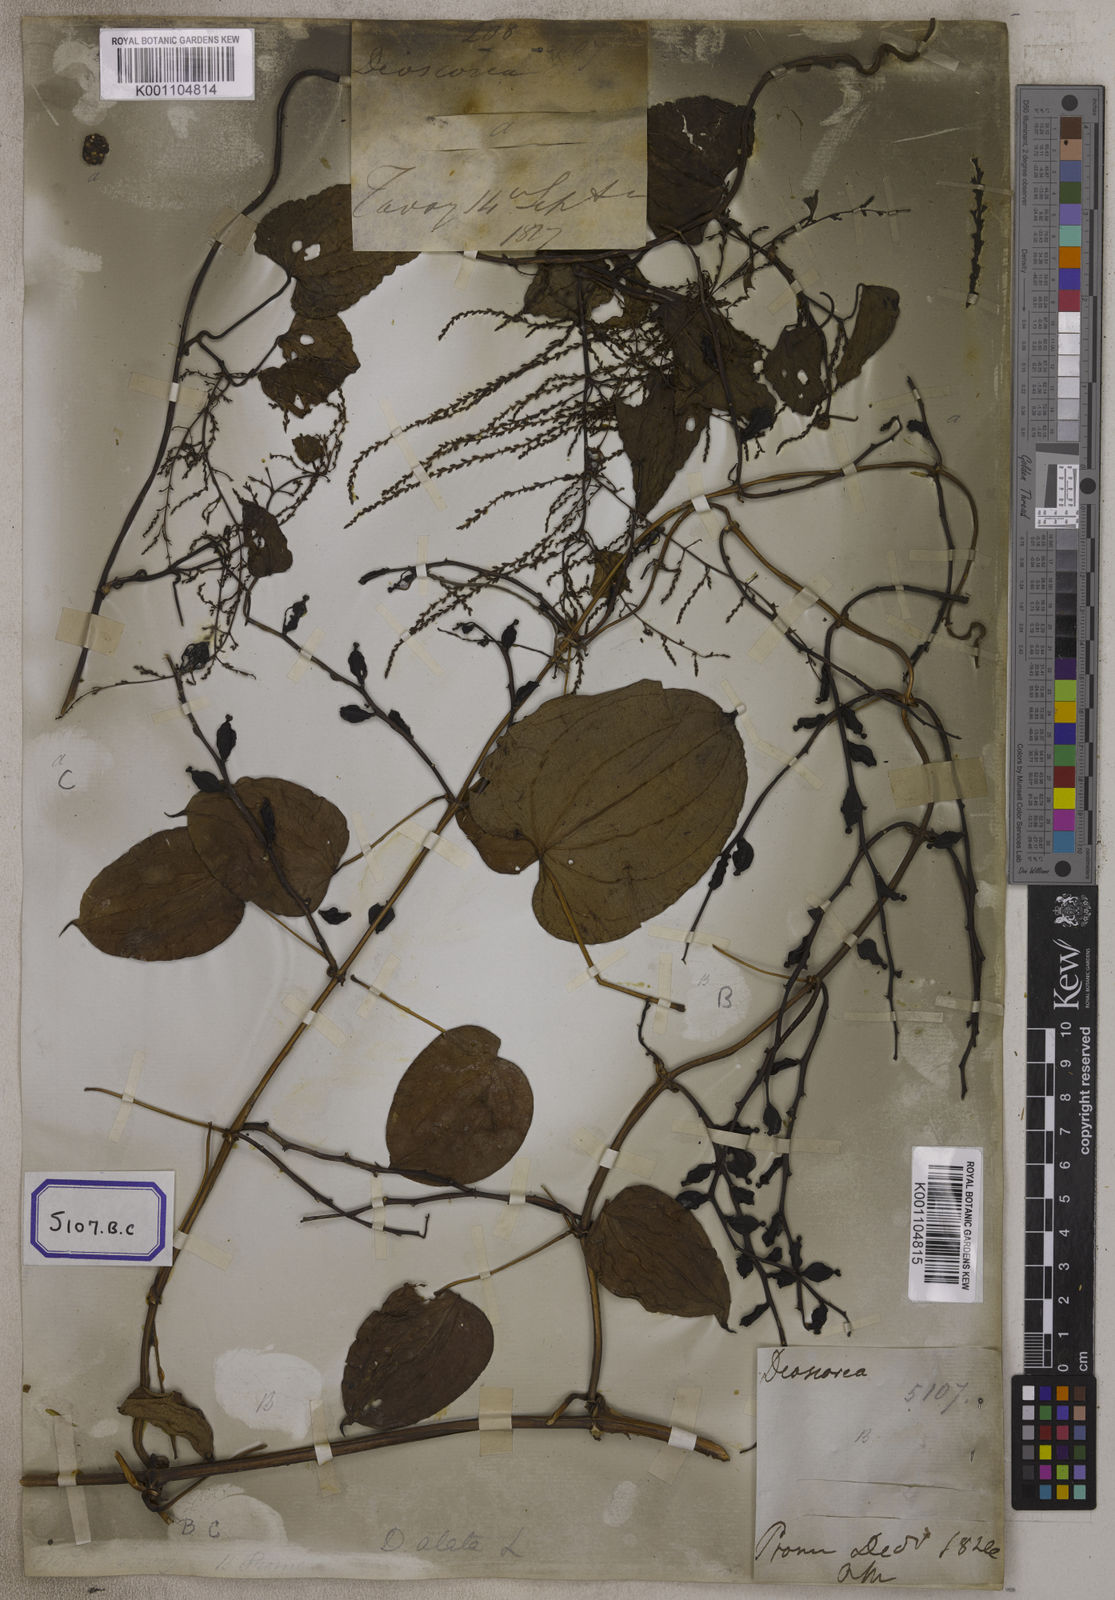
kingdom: Plantae
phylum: Tracheophyta
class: Liliopsida
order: Dioscoreales
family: Dioscoreaceae
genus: Dioscorea
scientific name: Dioscorea
